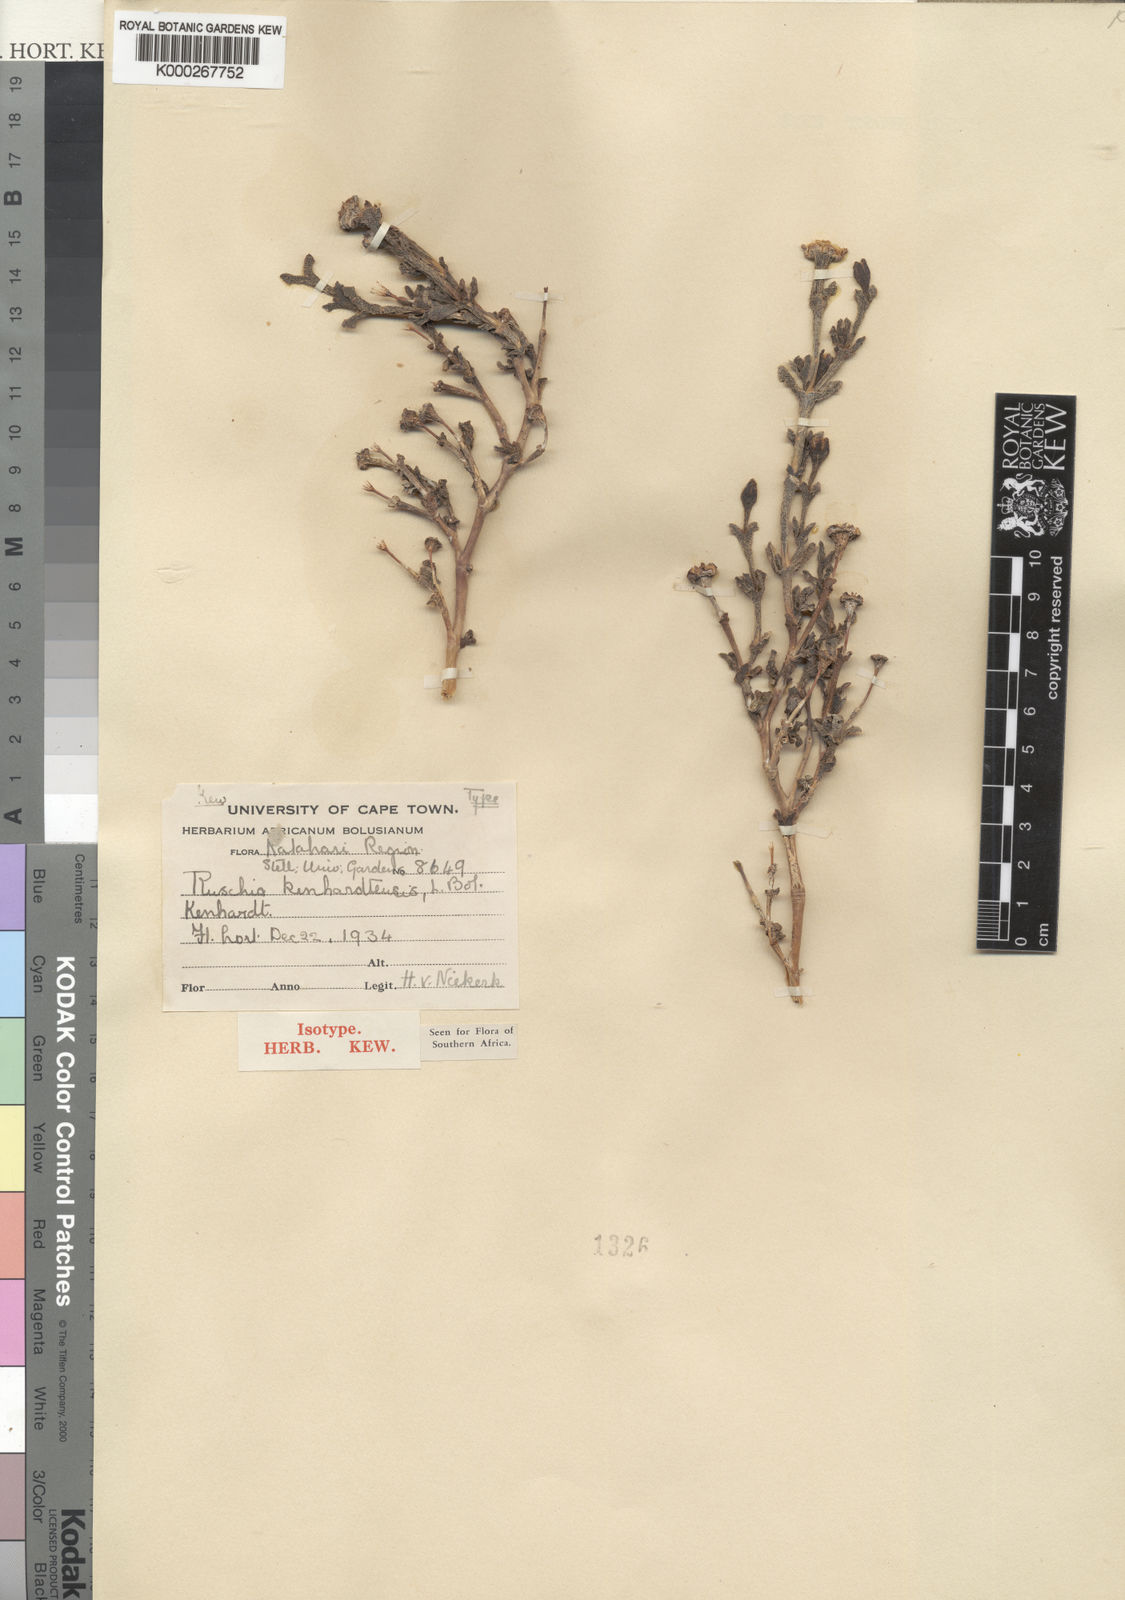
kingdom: Plantae
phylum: Tracheophyta
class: Magnoliopsida
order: Caryophyllales
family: Aizoaceae
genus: Ruschia
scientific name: Ruschia kenhardtensis
